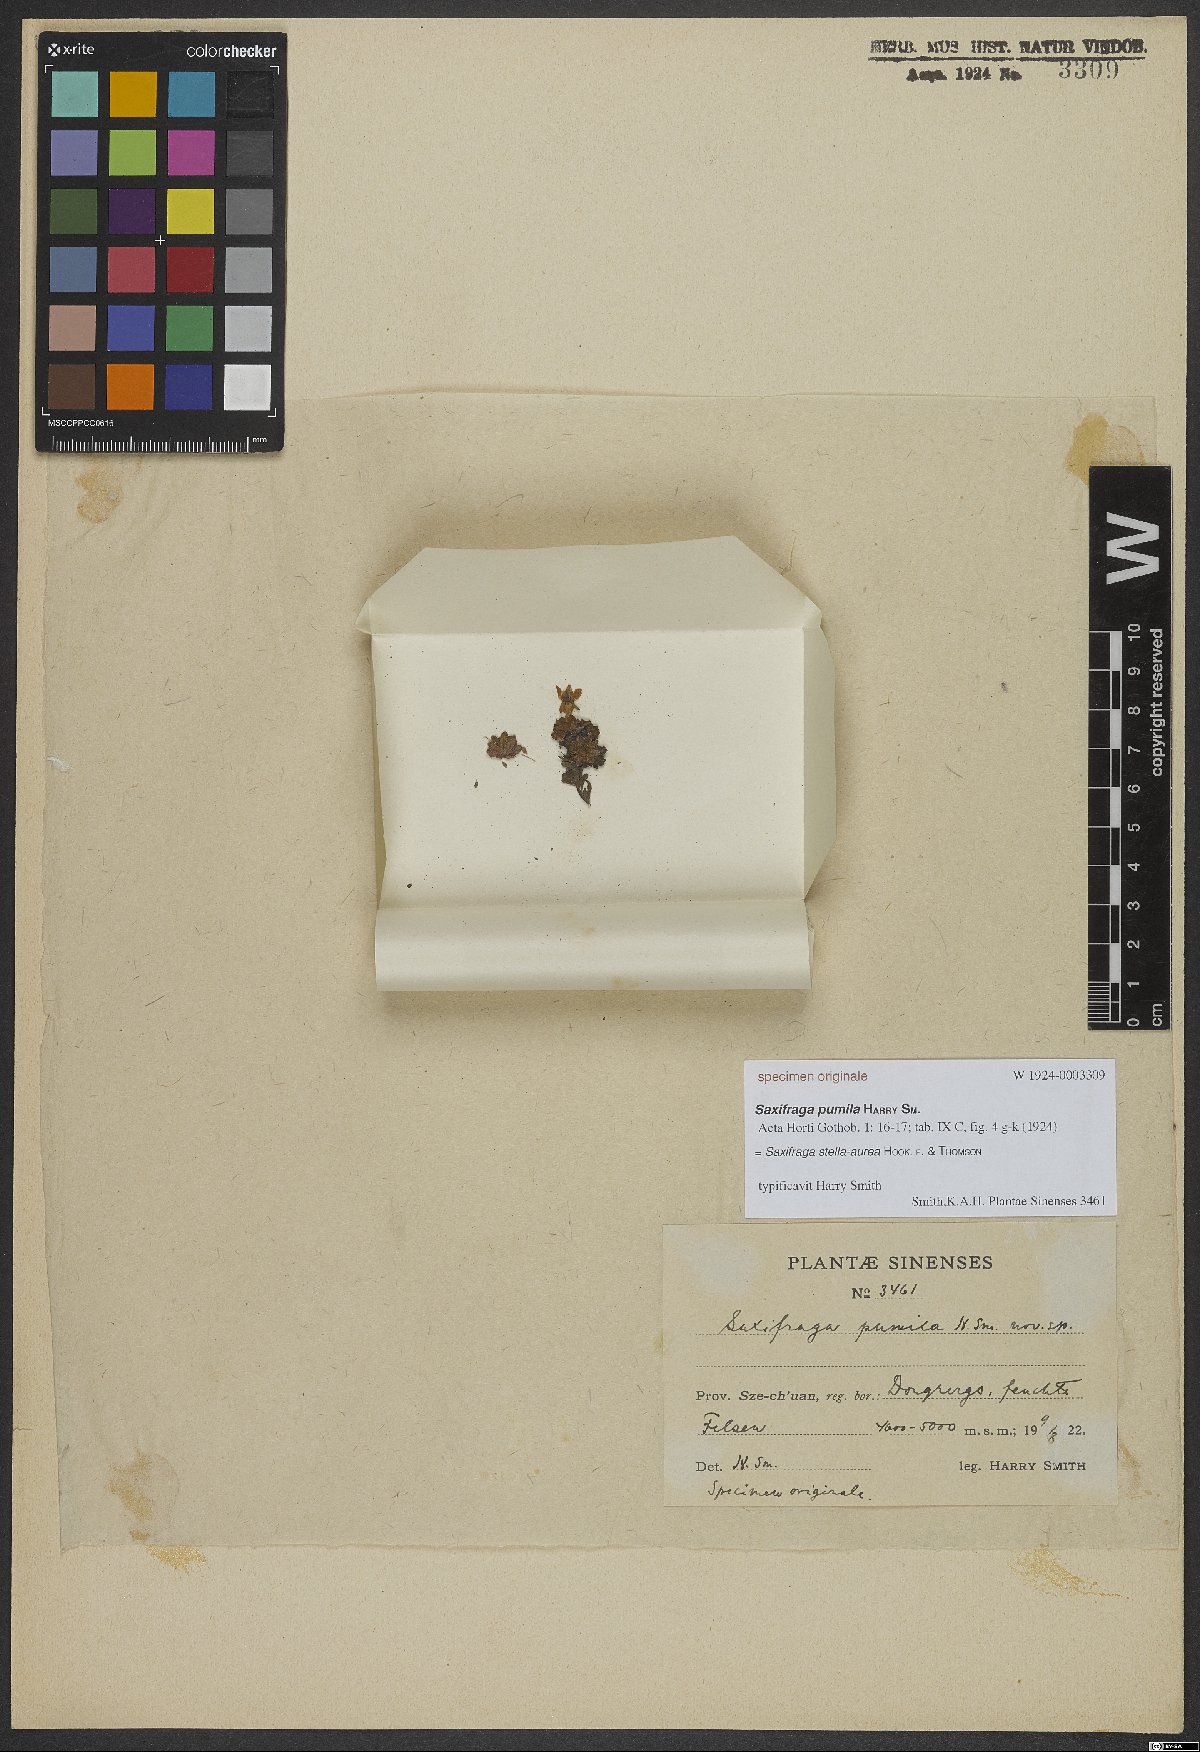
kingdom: Plantae
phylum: Tracheophyta
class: Magnoliopsida
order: Saxifragales
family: Saxifragaceae
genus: Saxifraga
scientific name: Saxifraga stella-aurea
